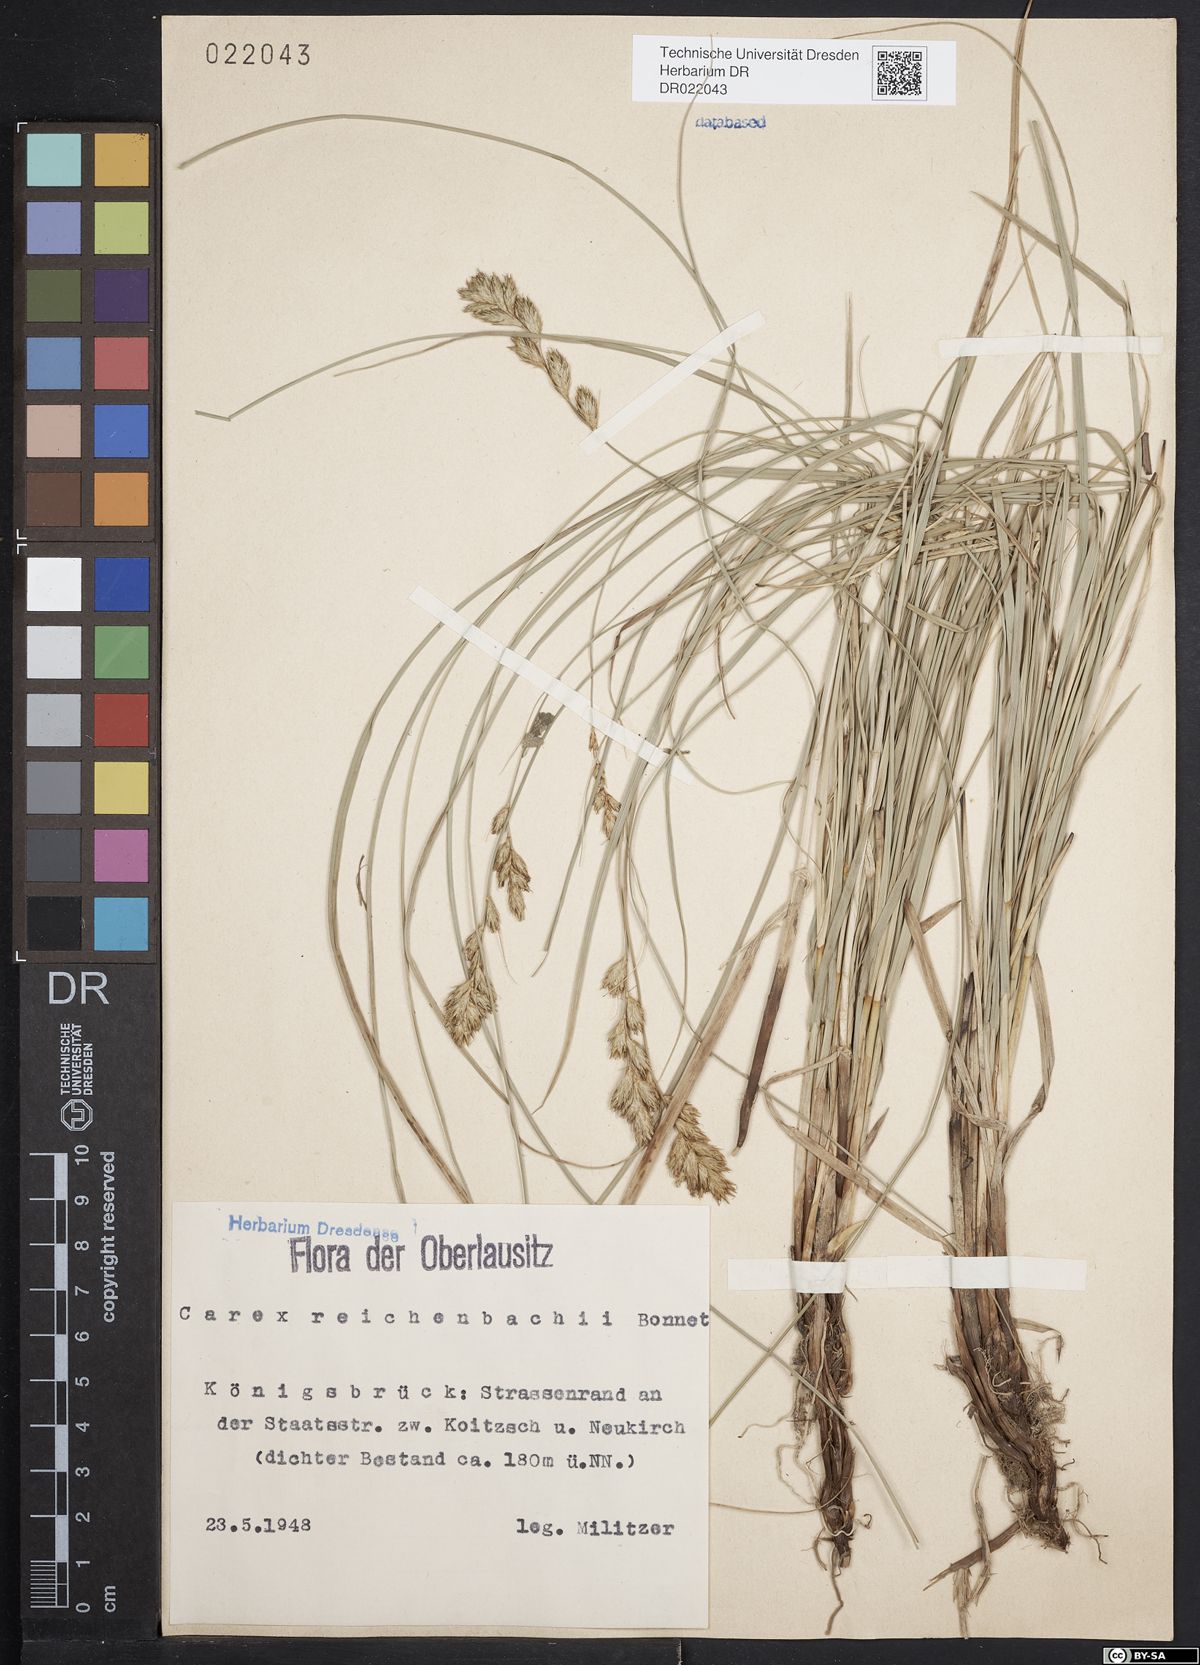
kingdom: Plantae
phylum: Tracheophyta
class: Liliopsida
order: Poales
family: Cyperaceae
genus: Carex
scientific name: Carex pseudobrizoides
